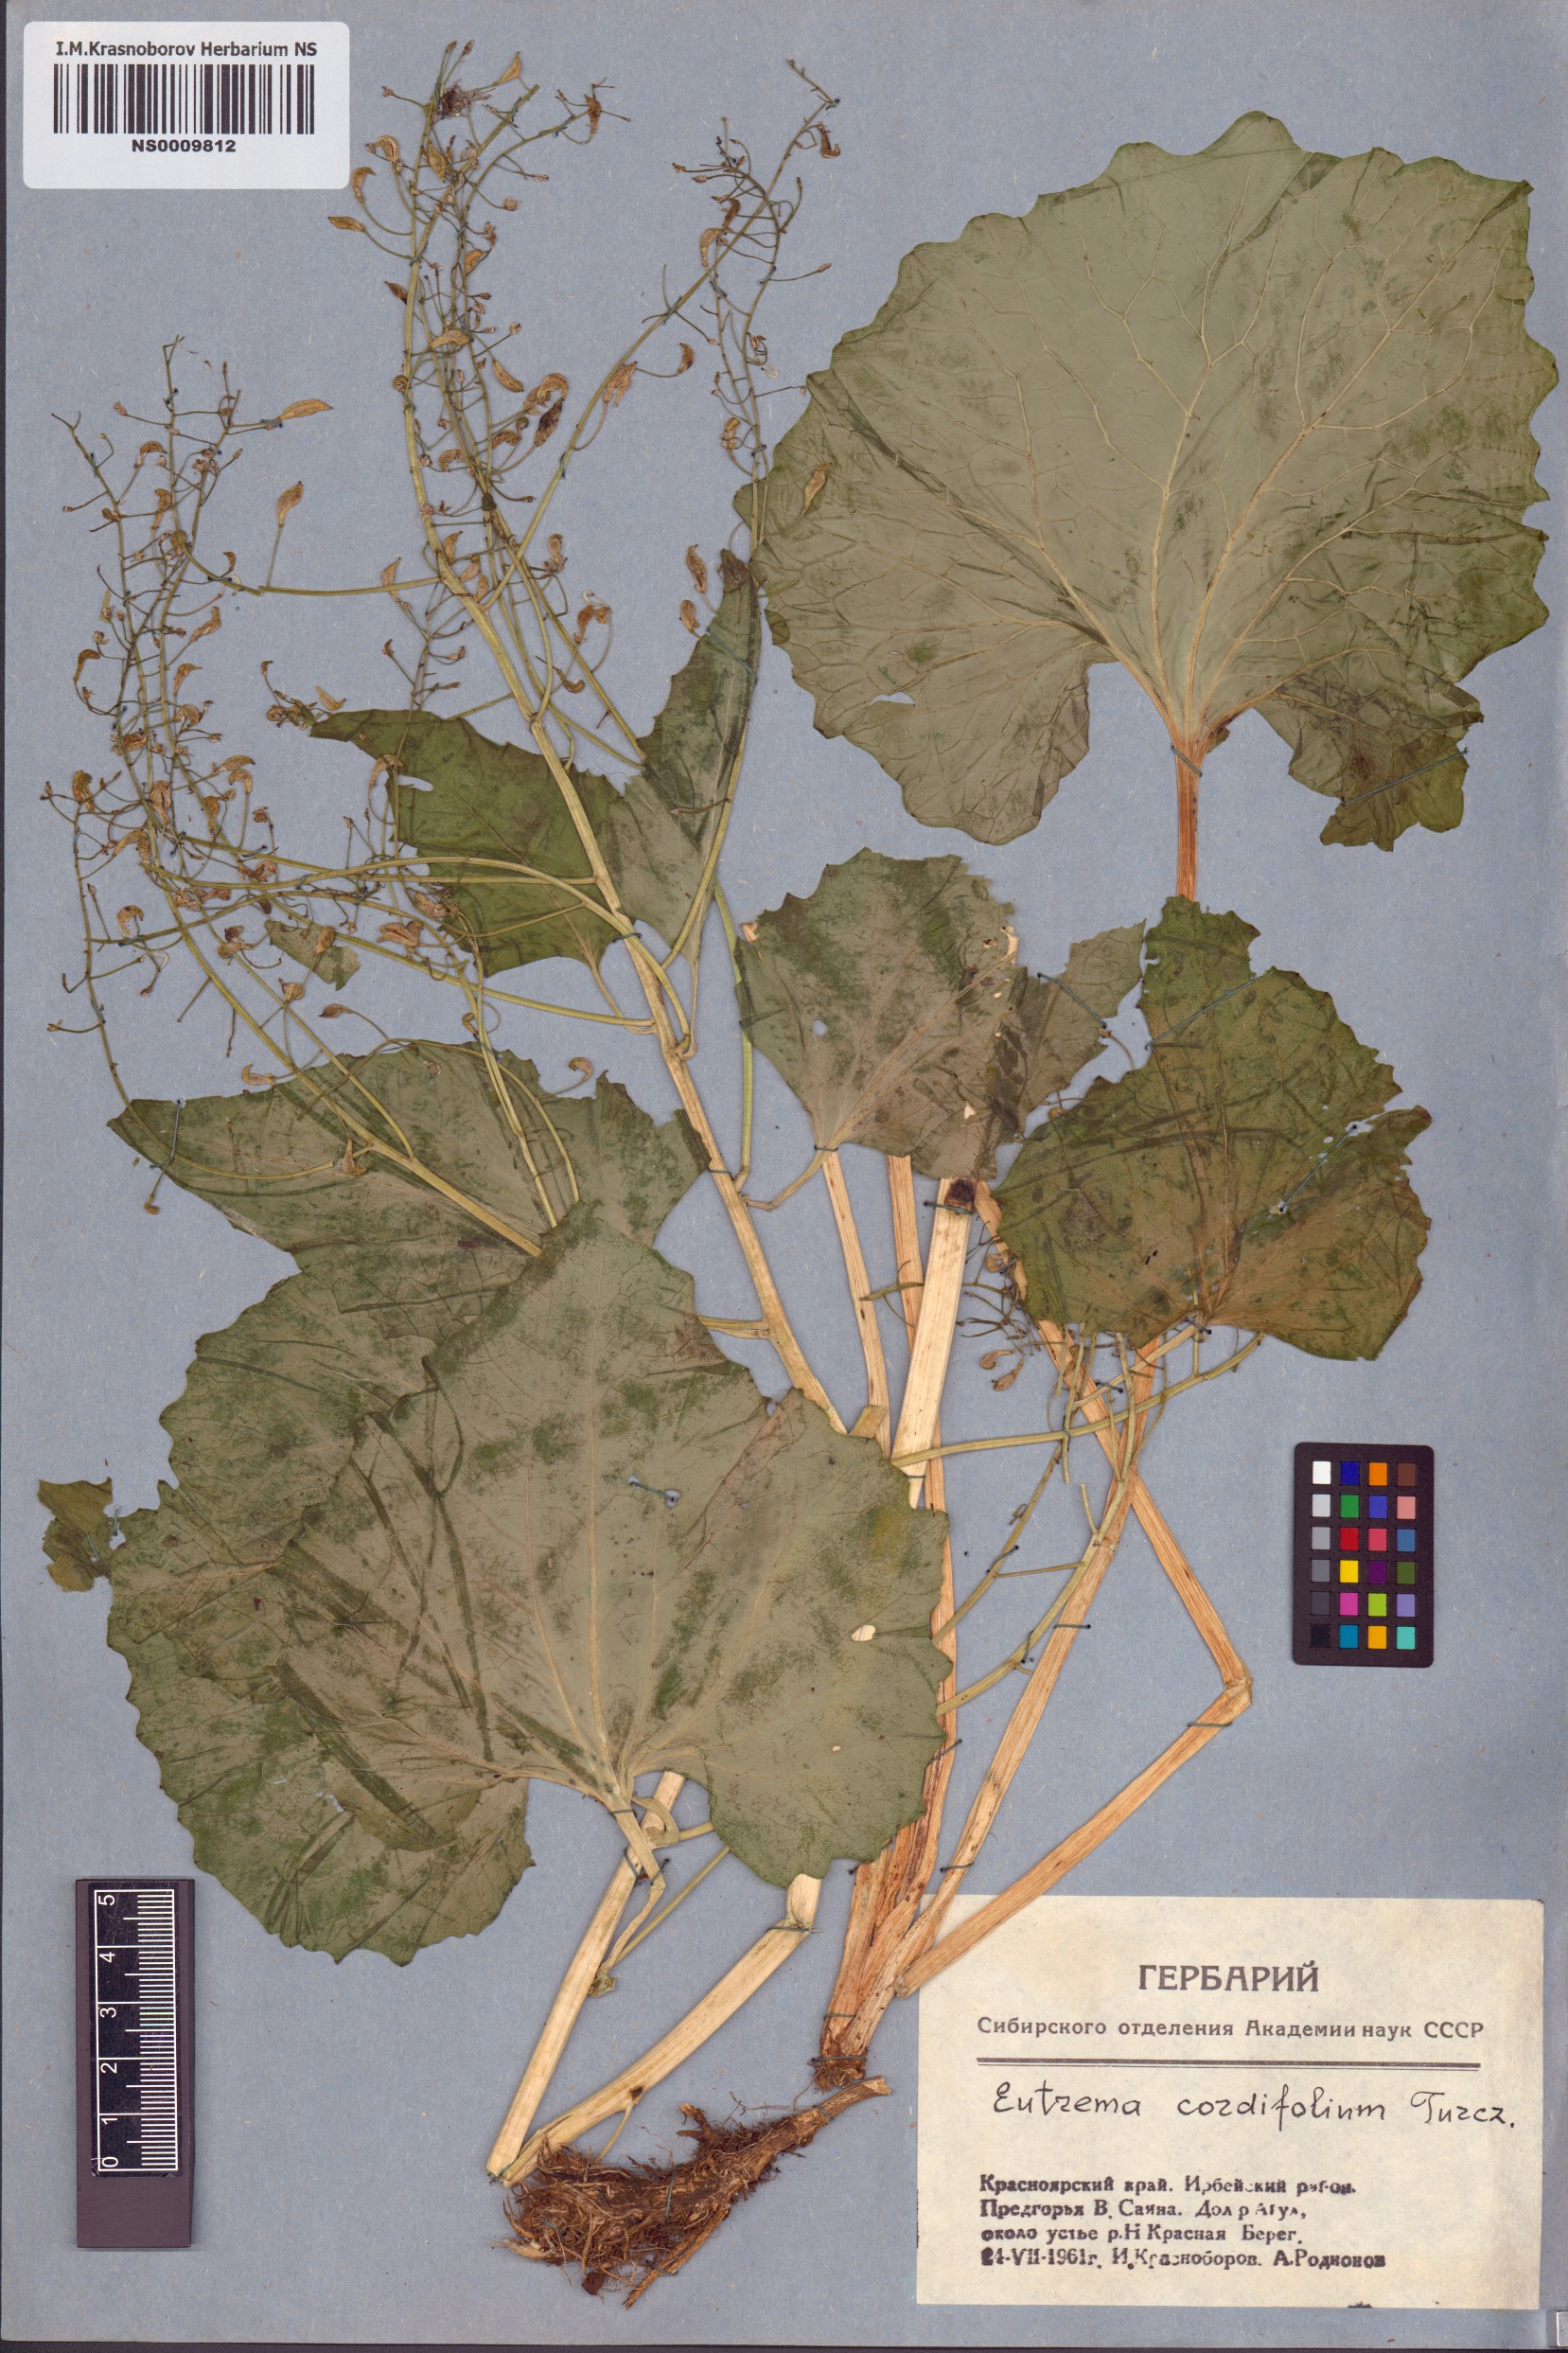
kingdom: Plantae
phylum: Tracheophyta
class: Magnoliopsida
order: Brassicales
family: Brassicaceae
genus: Eutrema
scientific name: Eutrema cordifolium
